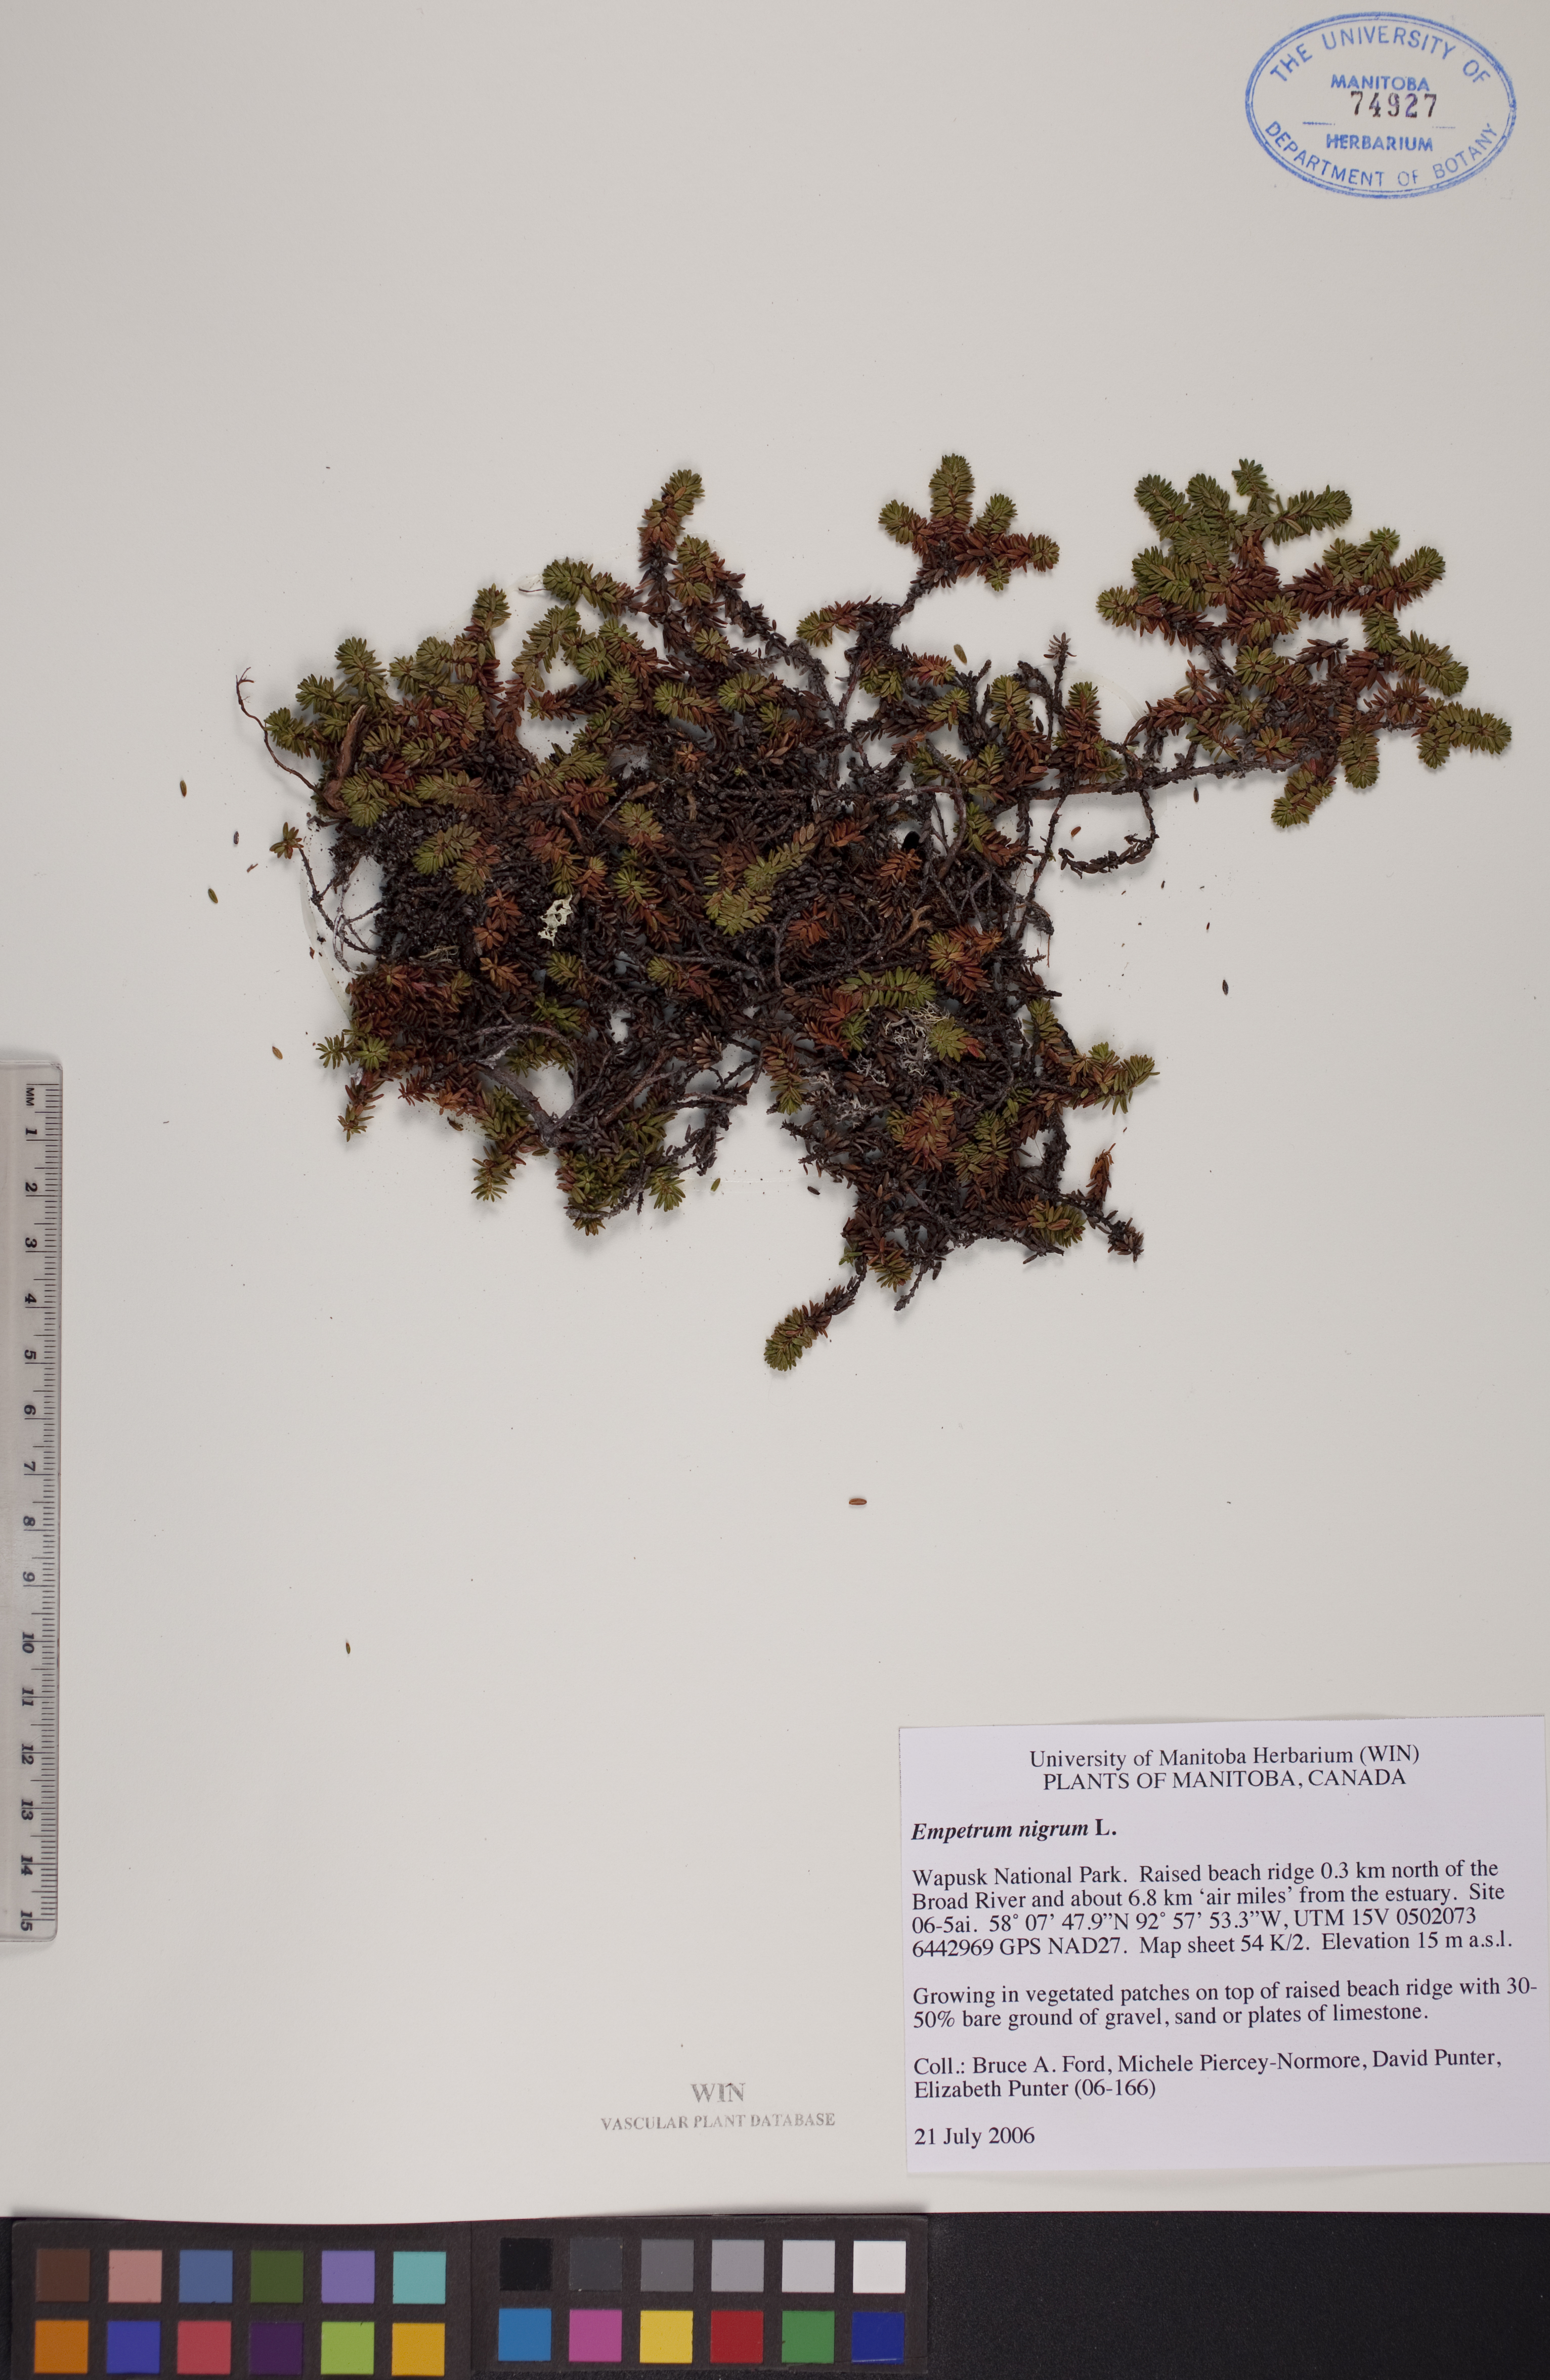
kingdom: Plantae
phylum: Tracheophyta
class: Magnoliopsida
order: Ericales
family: Ericaceae
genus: Empetrum
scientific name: Empetrum nigrum
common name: Black crowberry
